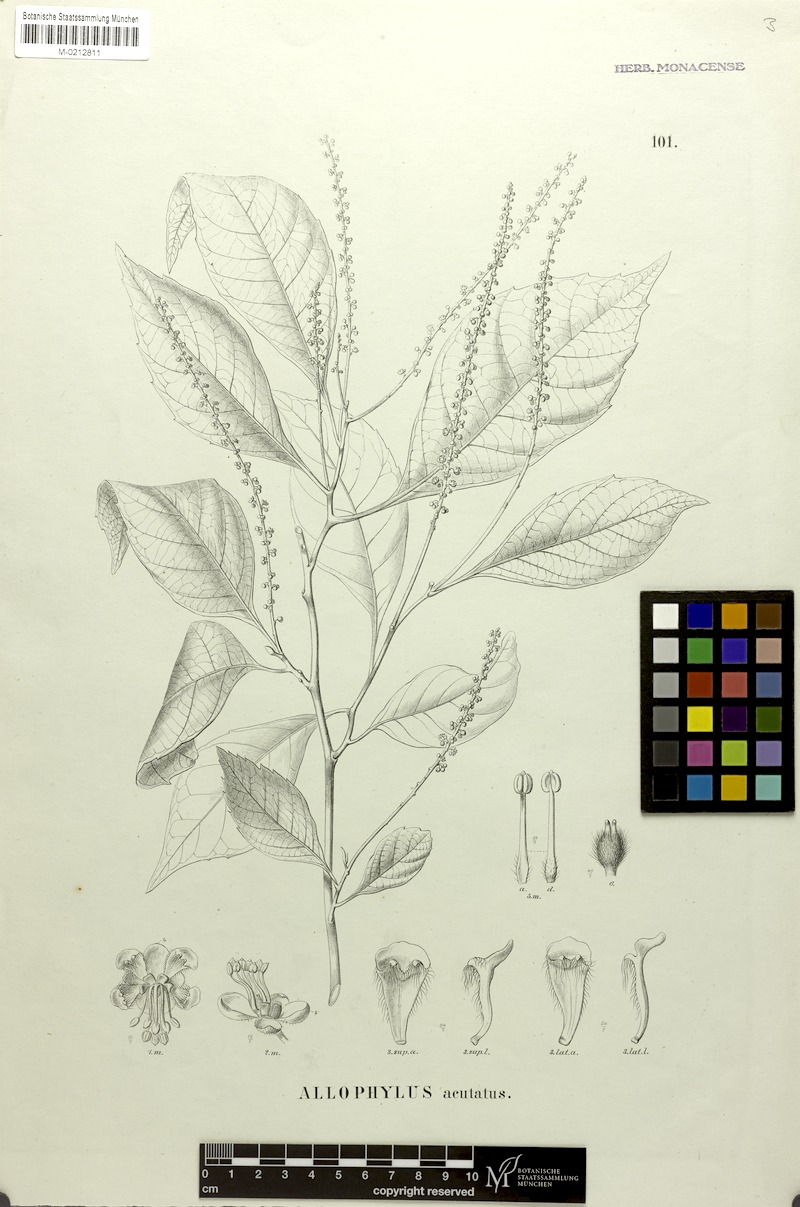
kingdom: Plantae
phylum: Tracheophyta
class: Magnoliopsida
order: Sapindales
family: Sapindaceae
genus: Allophylus
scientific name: Allophylus acutatus
